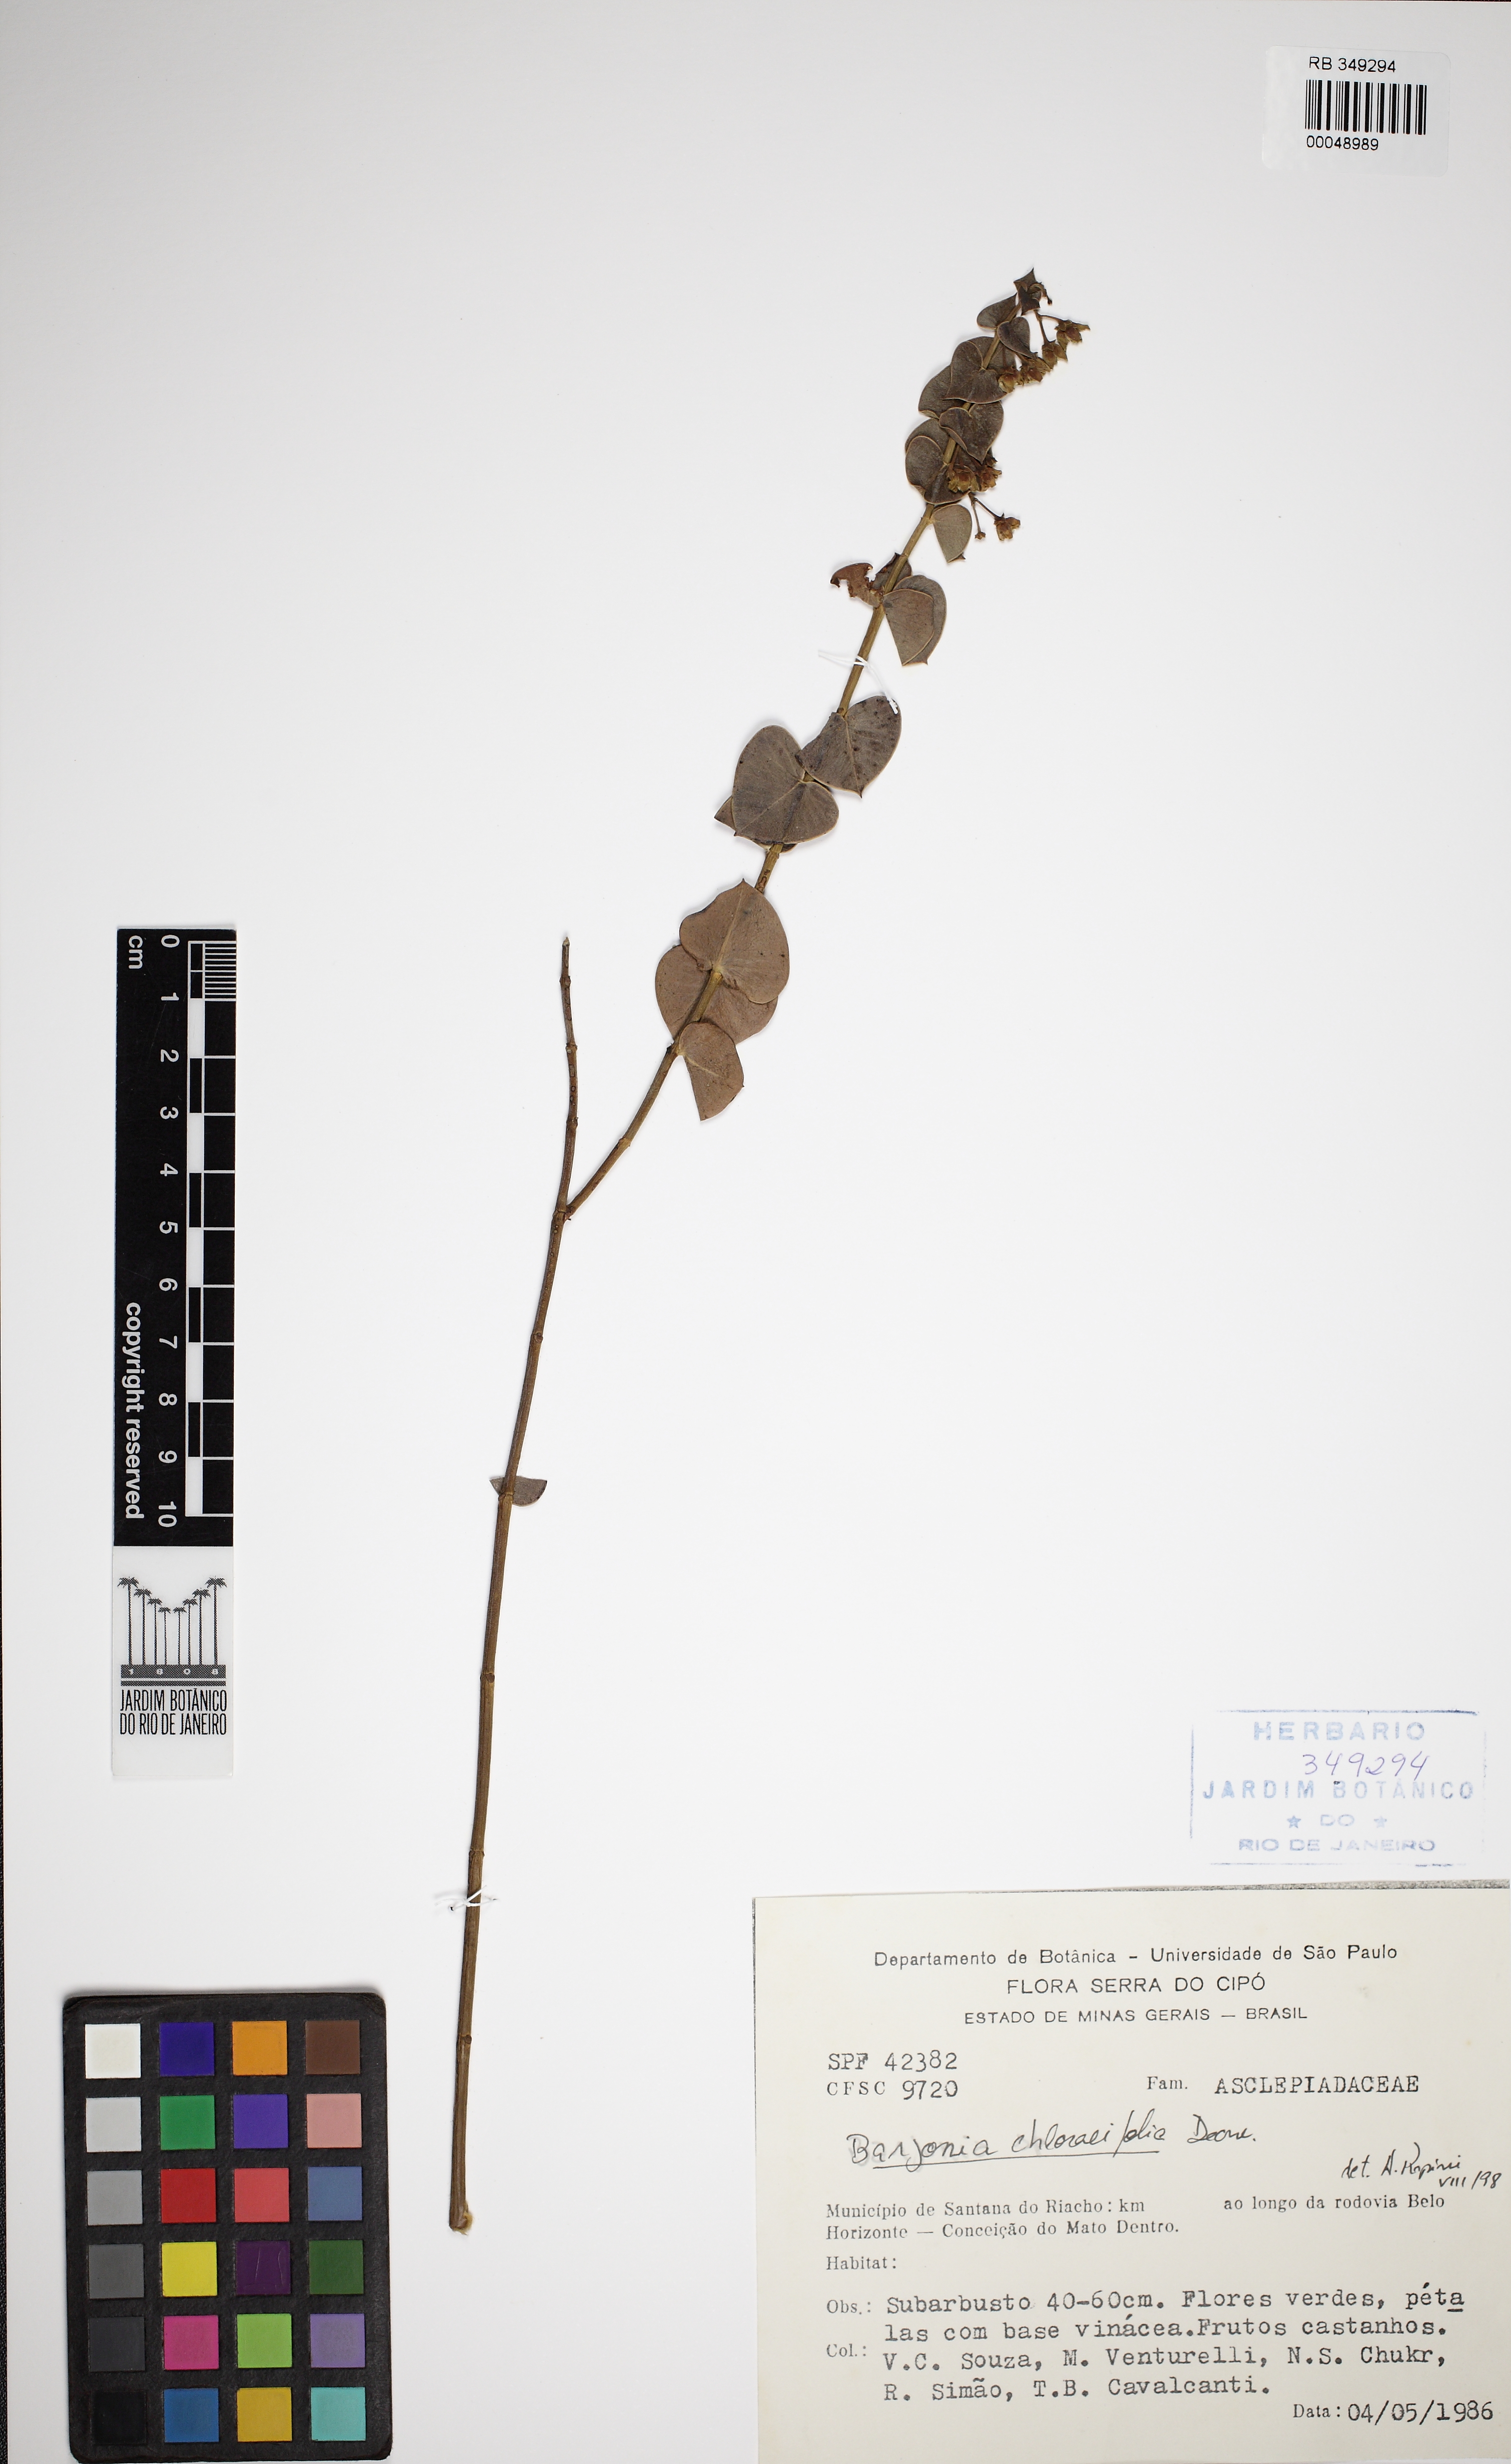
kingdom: Plantae
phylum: Tracheophyta
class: Magnoliopsida
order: Gentianales
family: Apocynaceae
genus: Barjonia
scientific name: Barjonia chloraeifolia
